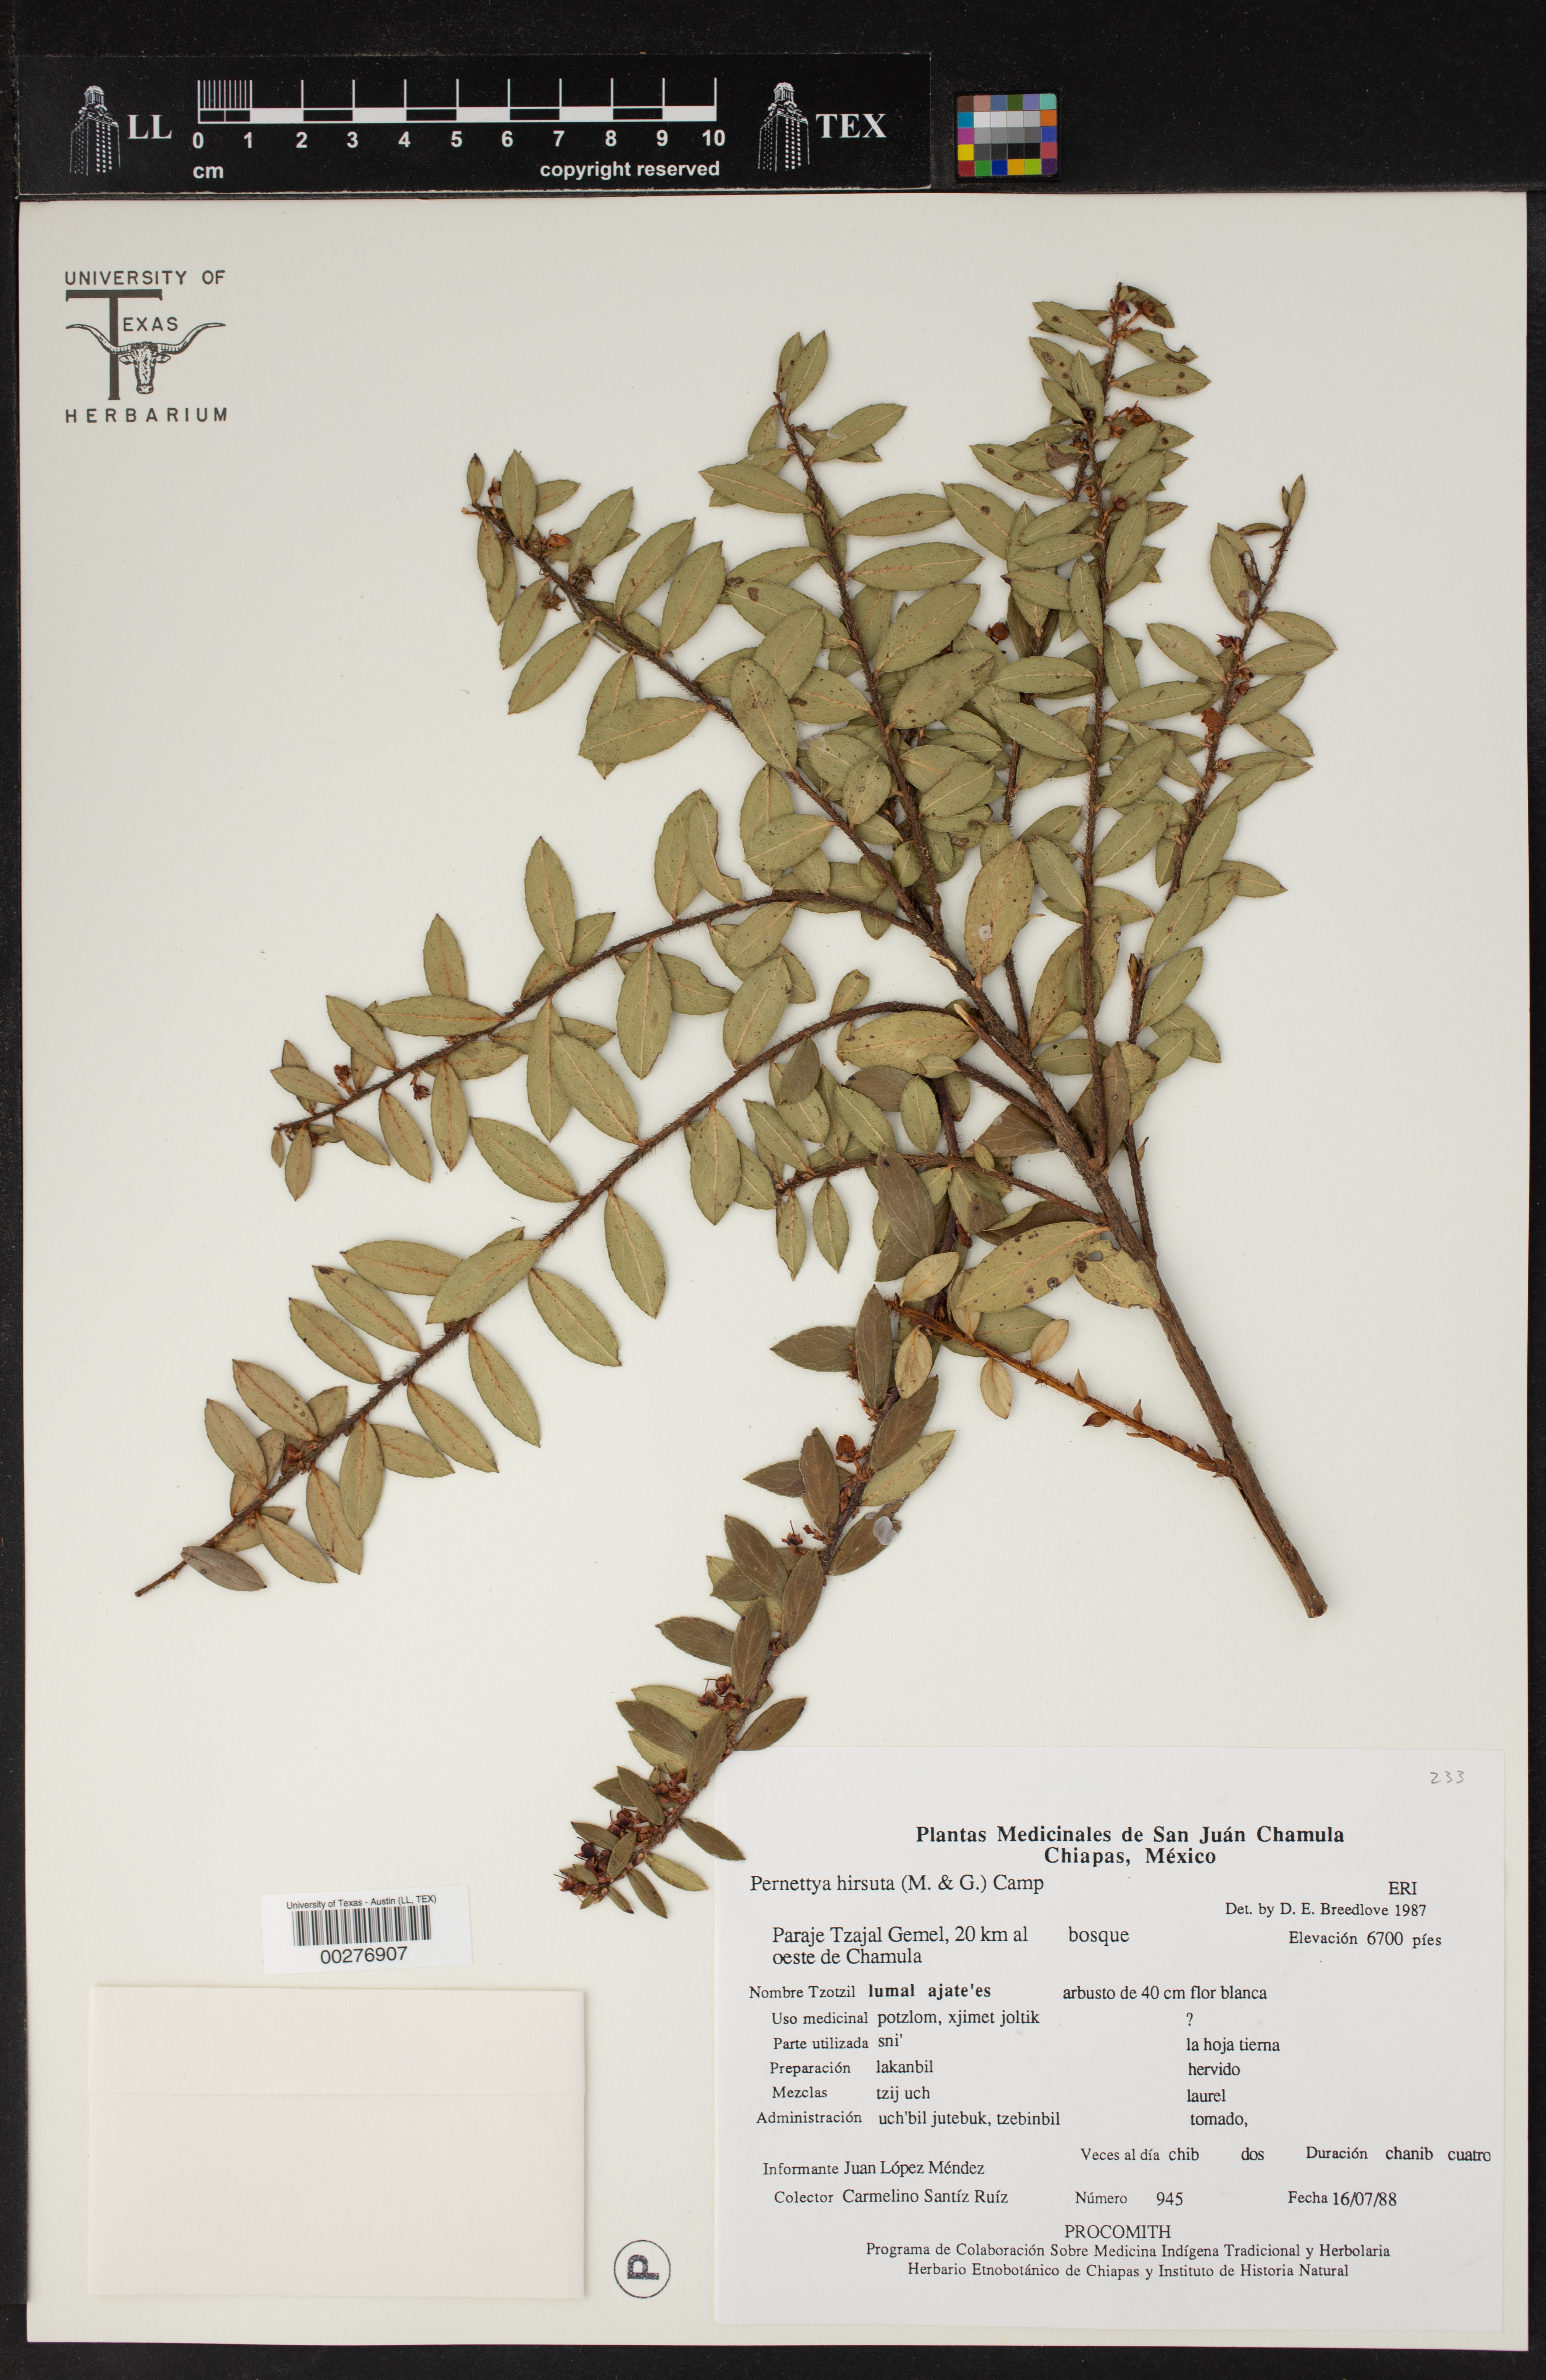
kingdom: Plantae
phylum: Tracheophyta
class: Magnoliopsida
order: Ericales
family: Ericaceae
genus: Gaultheria
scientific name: Gaultheria myrsinoides
